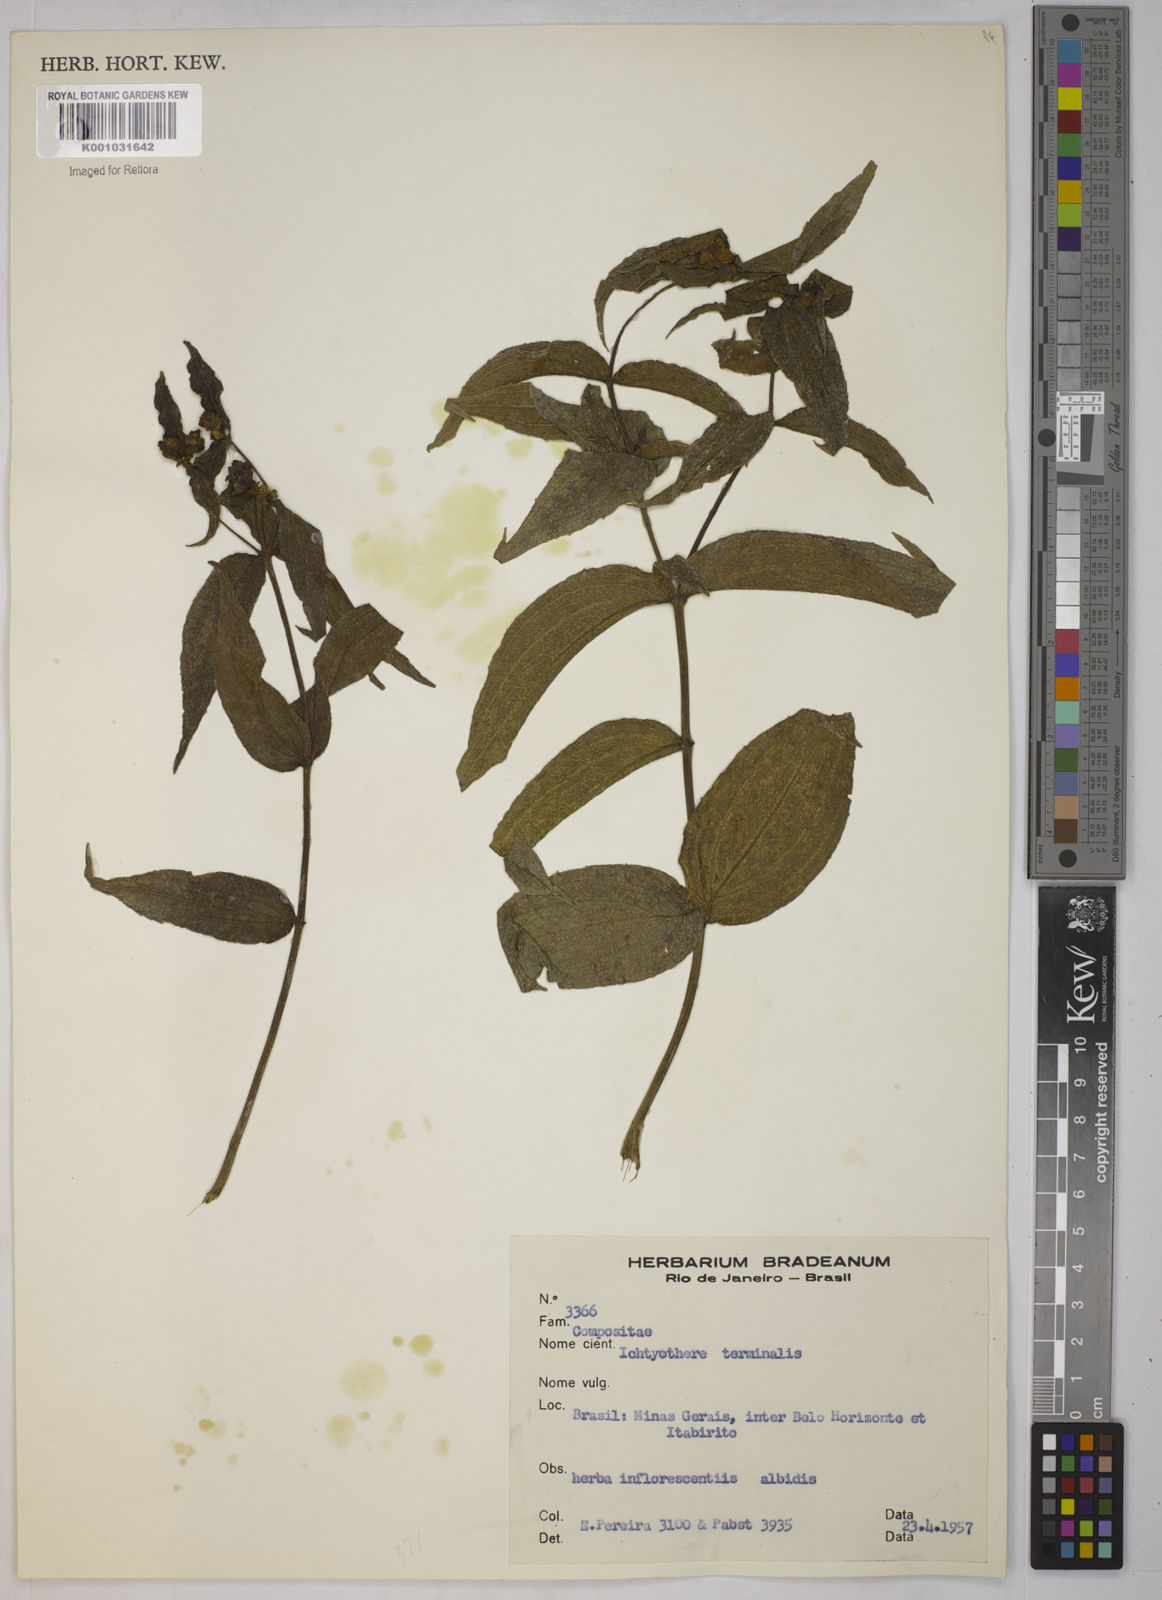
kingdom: Plantae
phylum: Tracheophyta
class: Magnoliopsida
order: Asterales
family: Asteraceae
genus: Ichthyothere
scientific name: Ichthyothere terminalis
